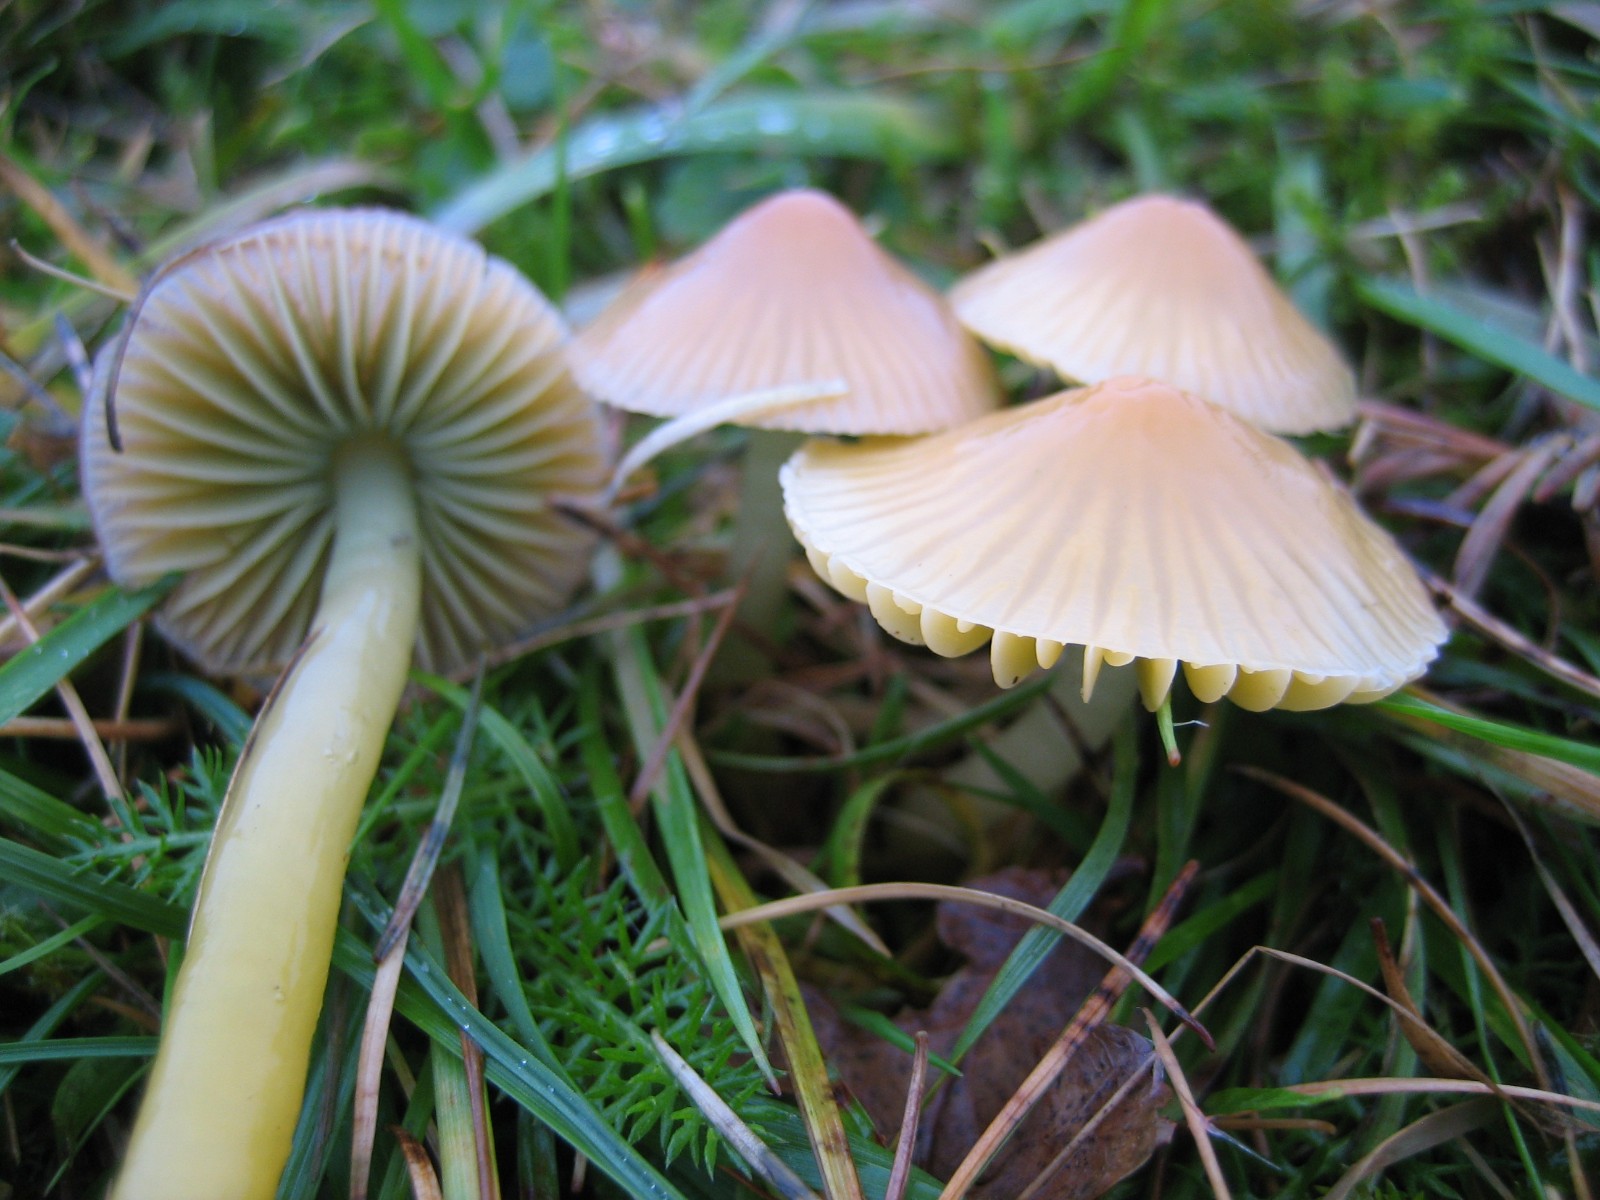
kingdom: Fungi
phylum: Basidiomycota
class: Agaricomycetes
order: Agaricales
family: Hygrophoraceae
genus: Gliophorus
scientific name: Gliophorus psittacinus
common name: papegøje-vokshat
